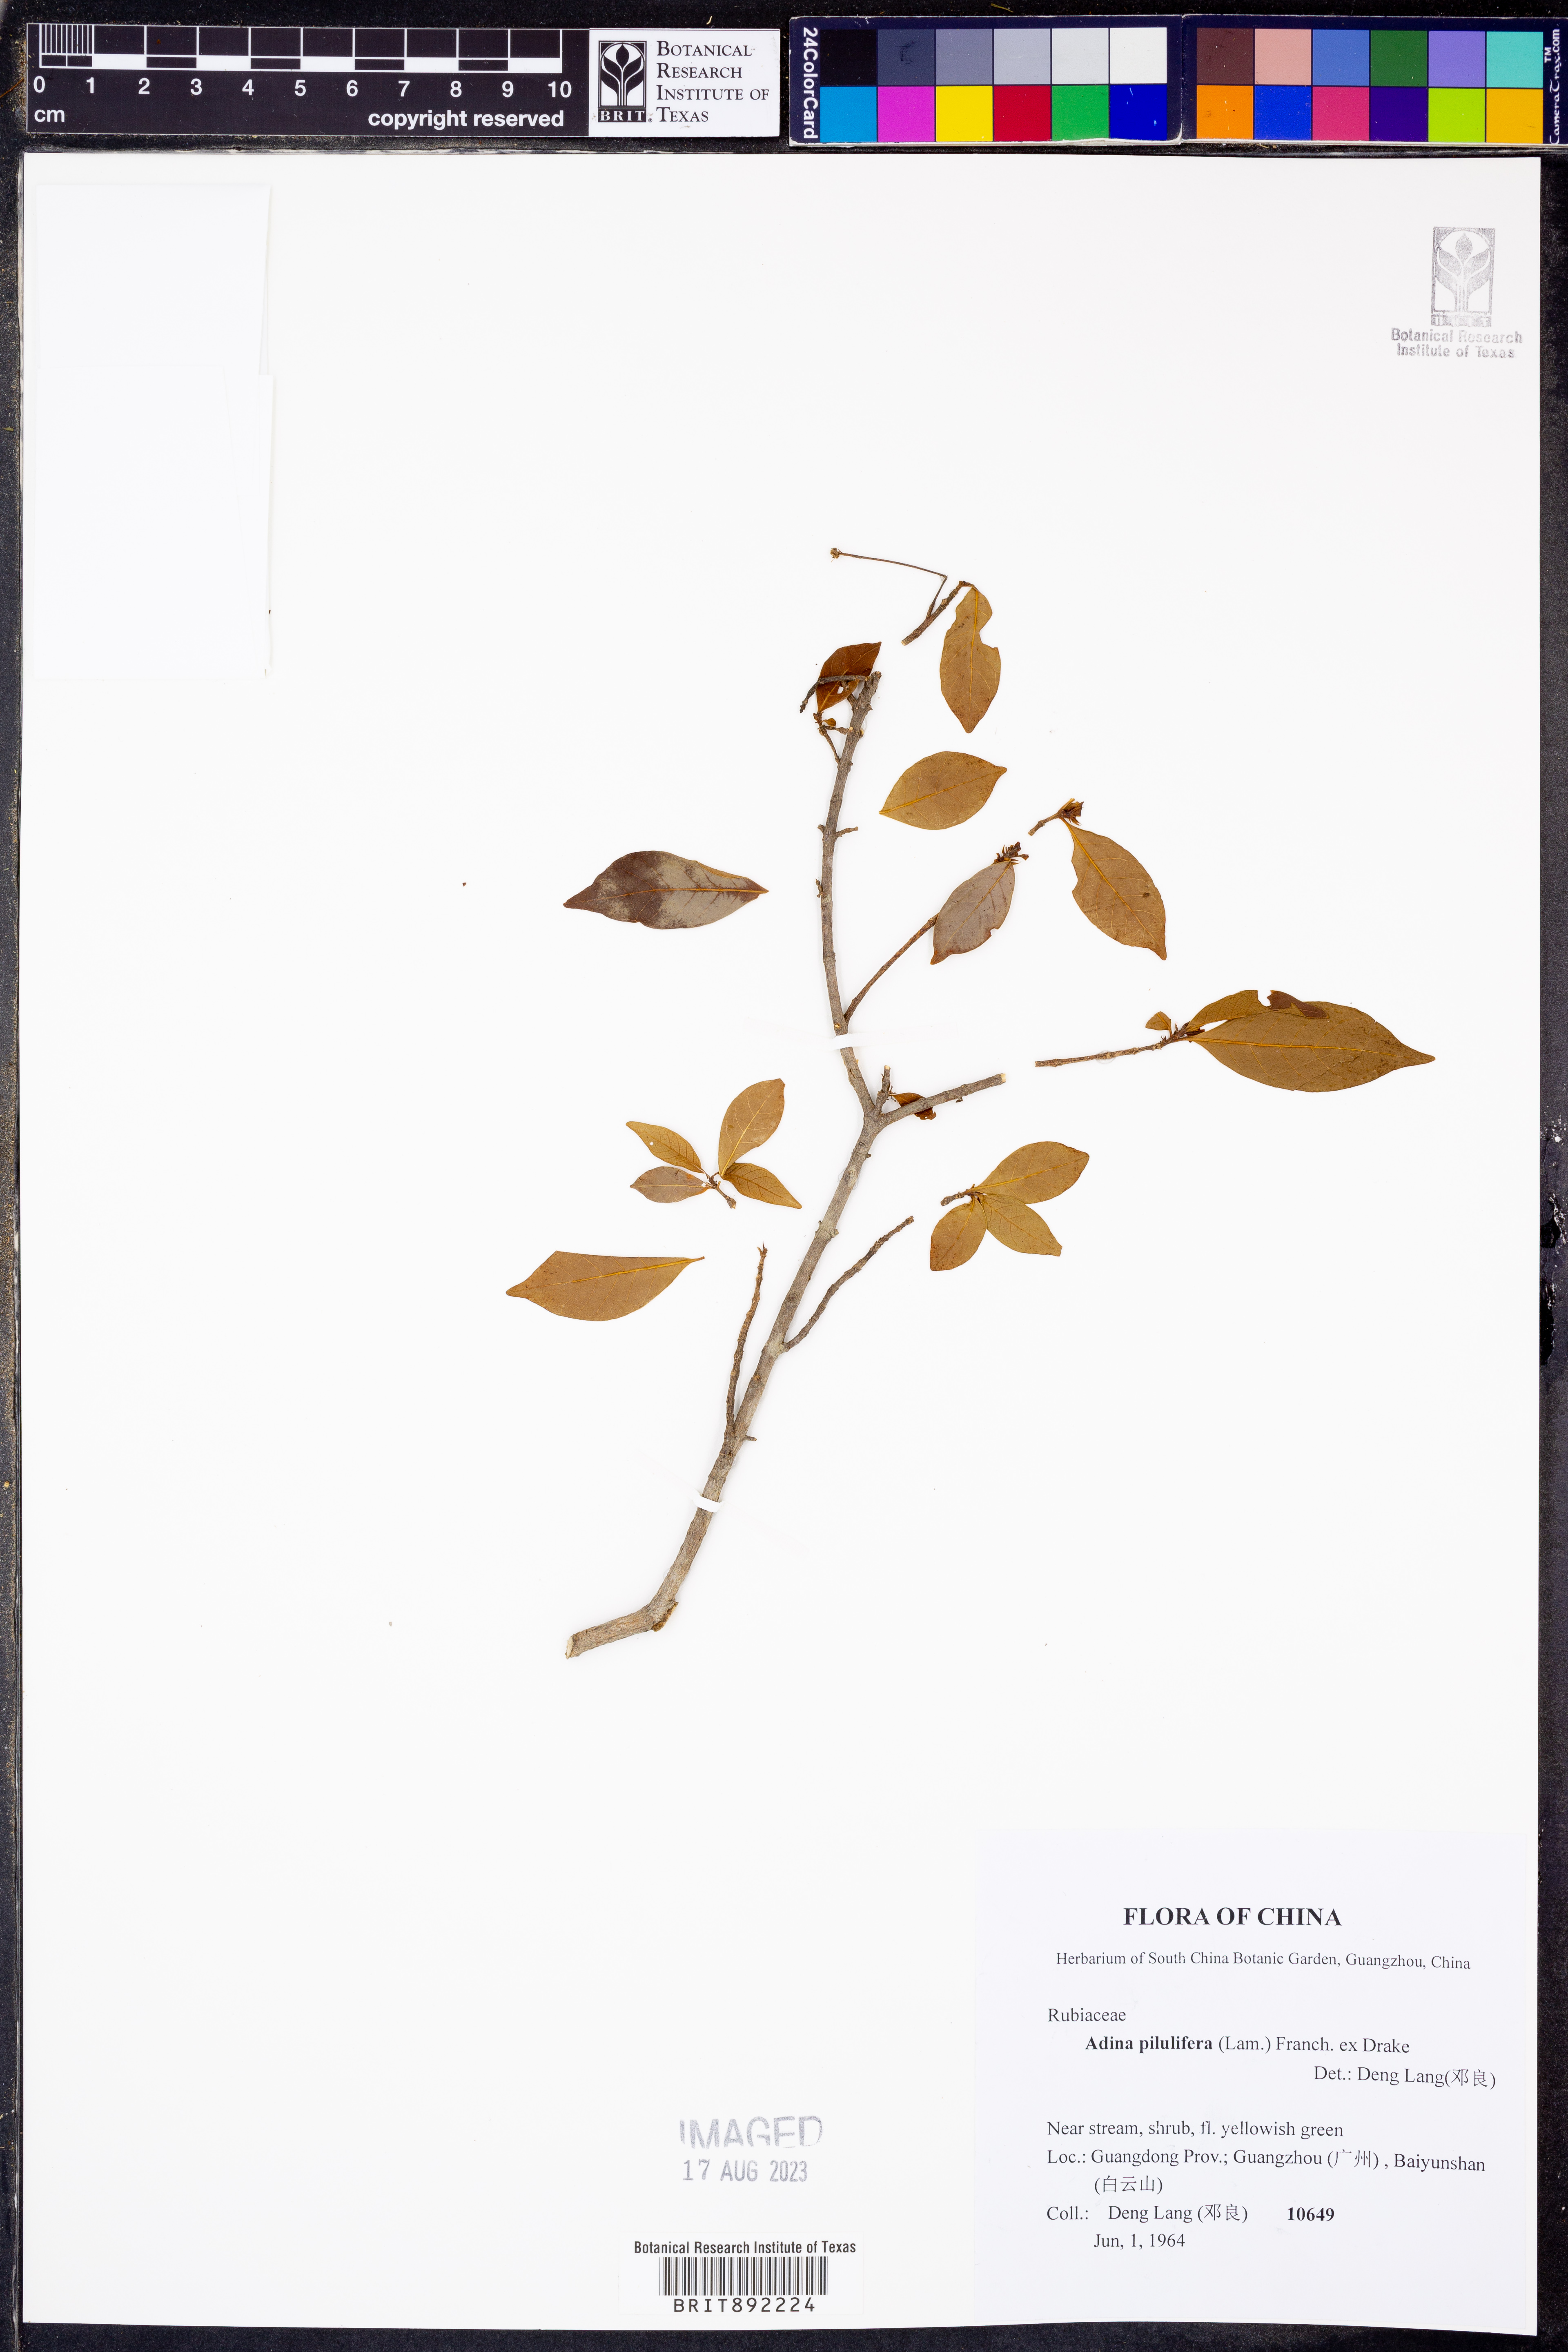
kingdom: Plantae
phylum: Tracheophyta
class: Magnoliopsida
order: Gentianales
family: Rubiaceae
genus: Adina
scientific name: Adina pilulifera
